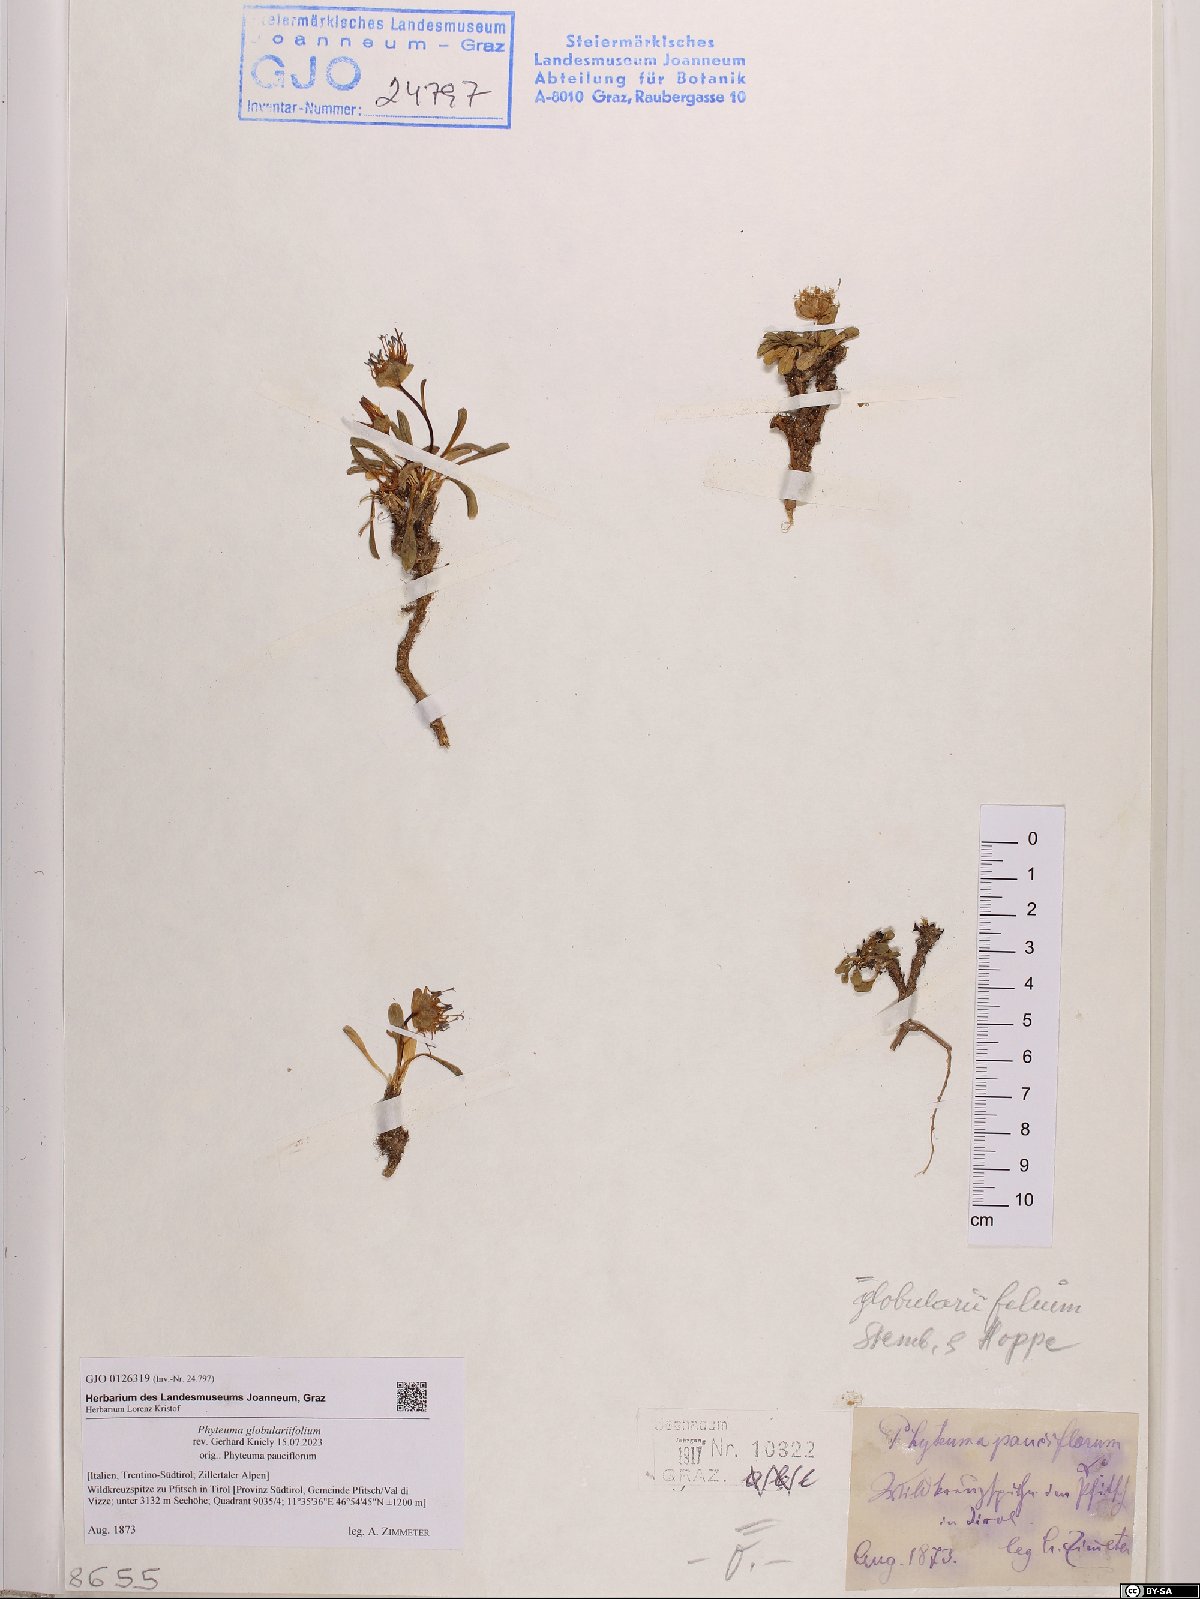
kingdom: Plantae
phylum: Tracheophyta
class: Magnoliopsida
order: Asterales
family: Campanulaceae
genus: Phyteuma
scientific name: Phyteuma globulariifolium
